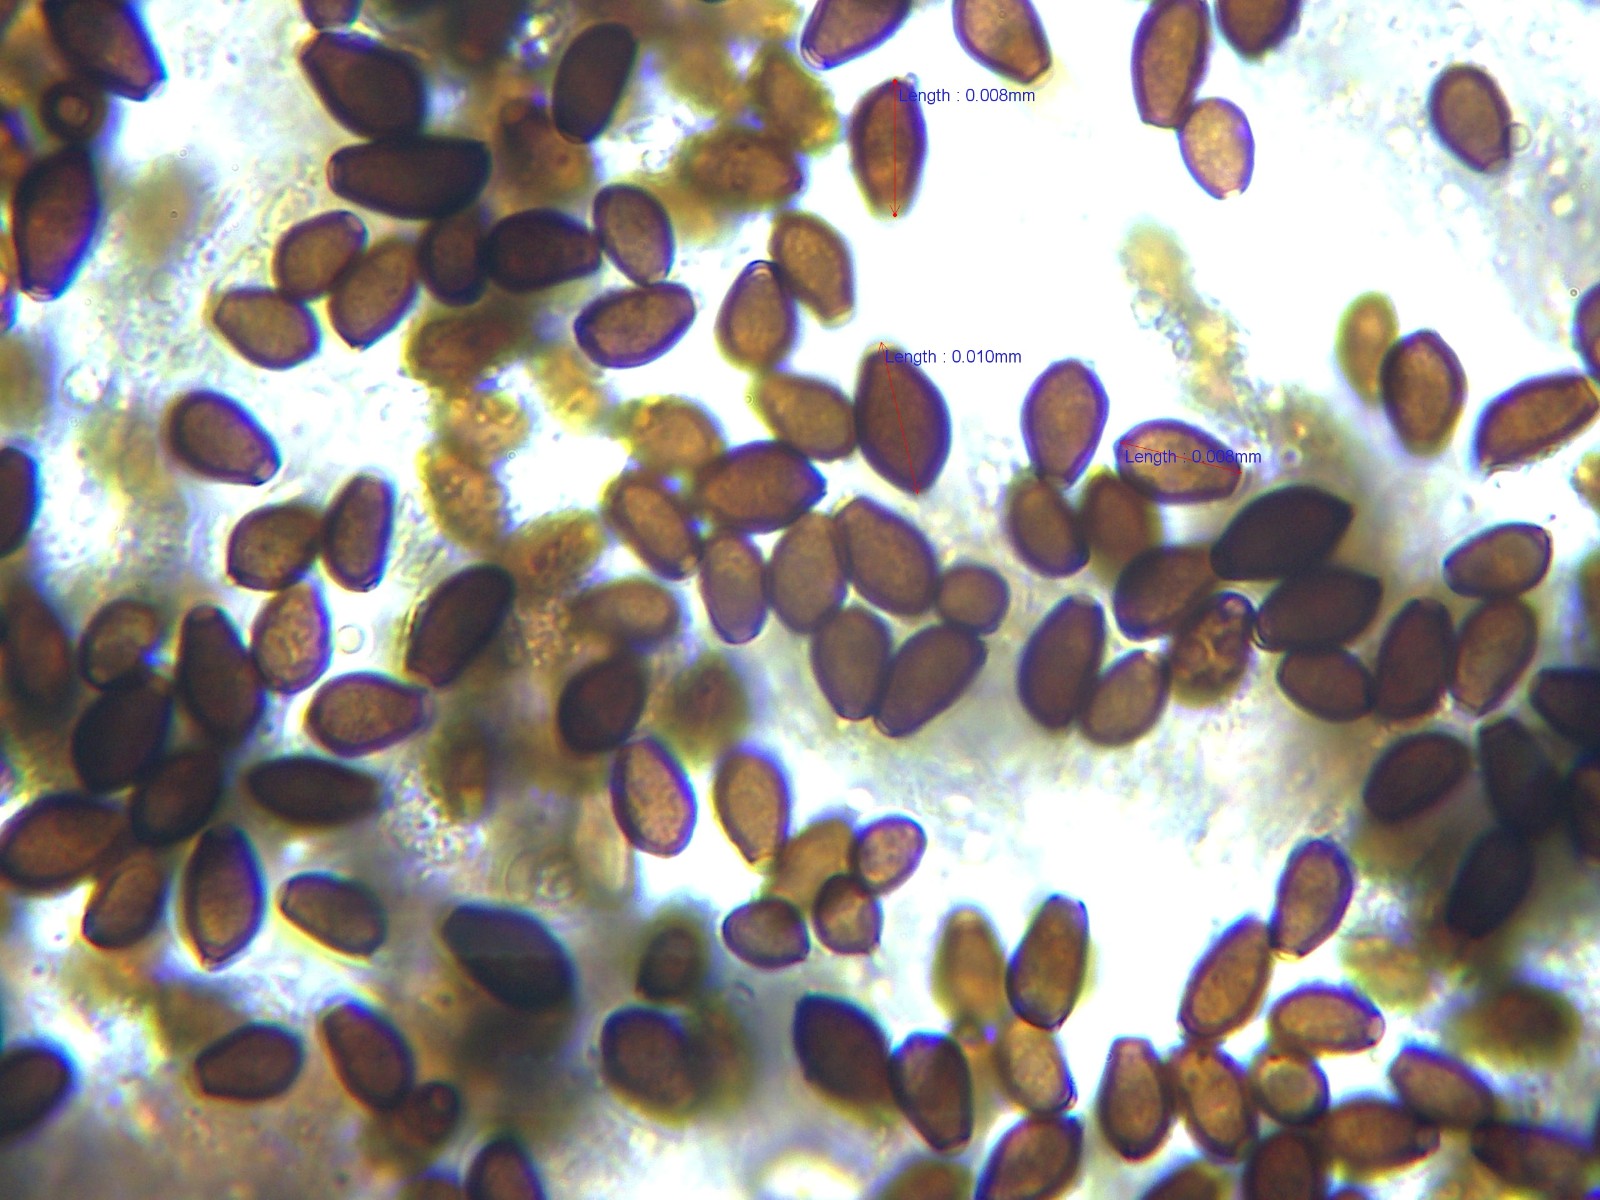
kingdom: Fungi
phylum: Basidiomycota
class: Agaricomycetes
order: Agaricales
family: Psathyrellaceae
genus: Coprinellus
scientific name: Coprinellus micaceus
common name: glimmer-blækhat
